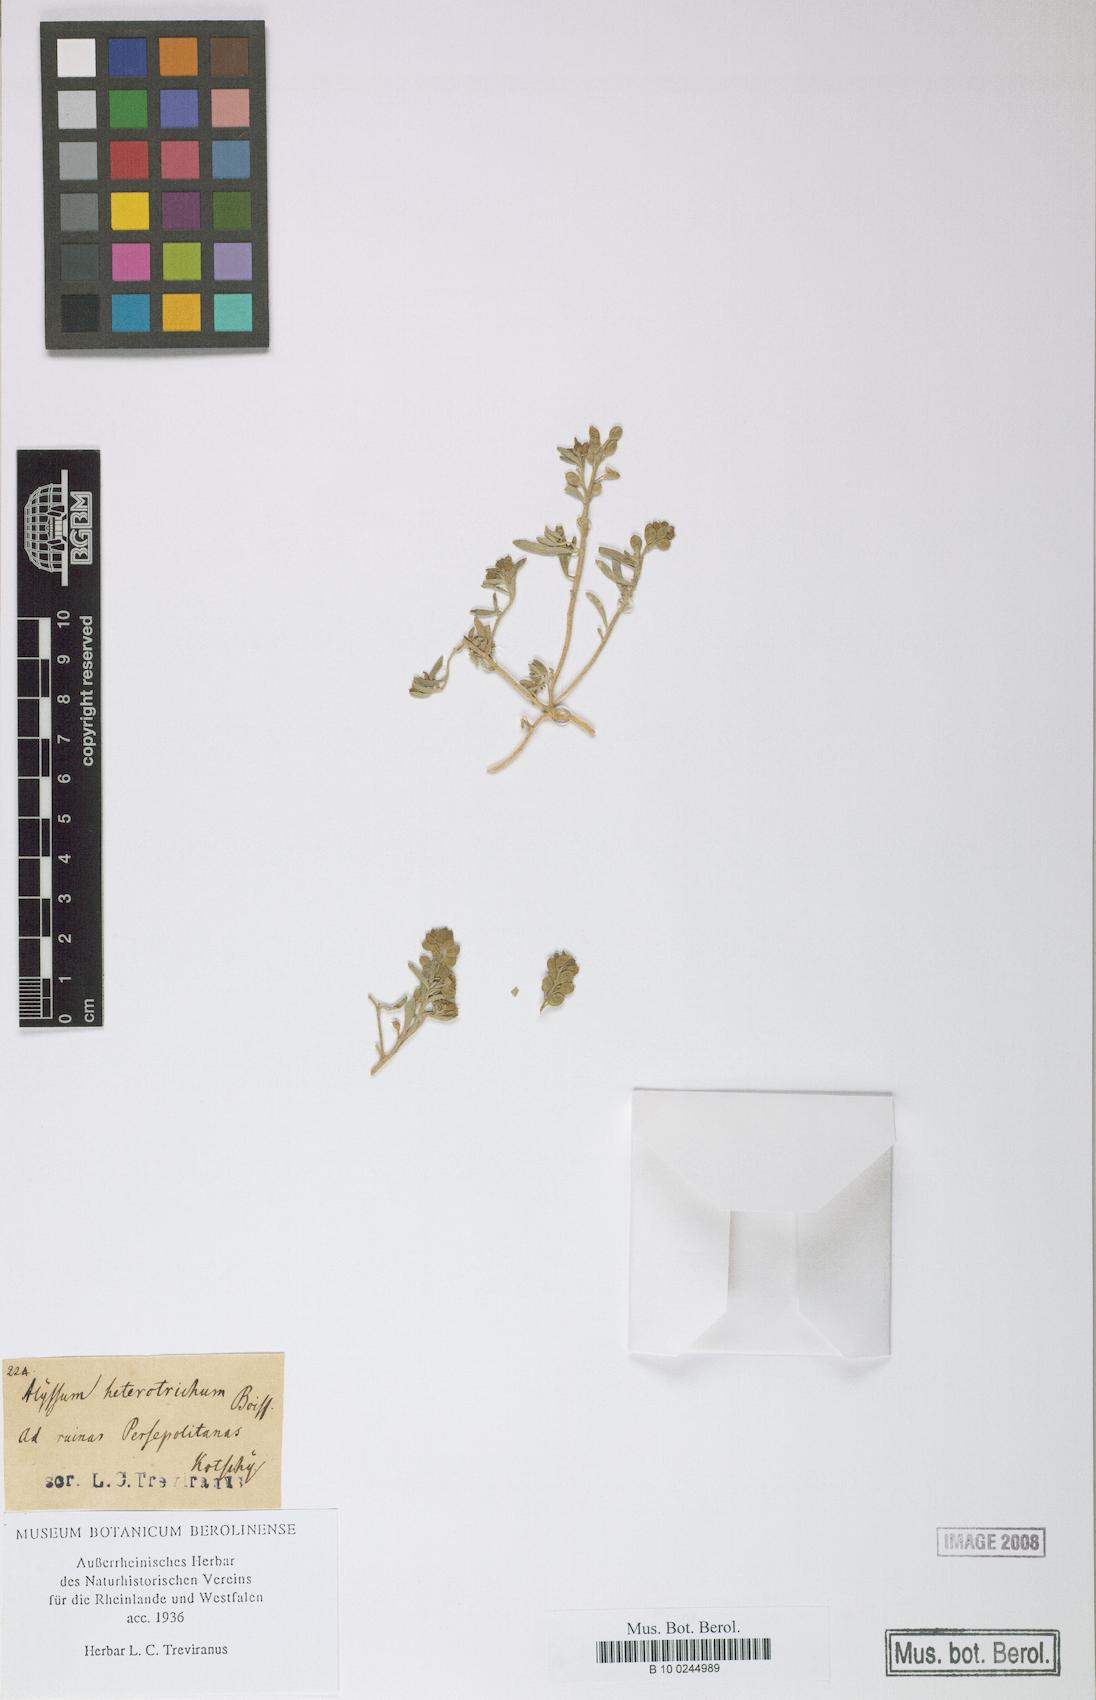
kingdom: Plantae
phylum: Tracheophyta
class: Magnoliopsida
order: Brassicales
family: Brassicaceae
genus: Meniocus
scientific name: Meniocus heterotrichus
